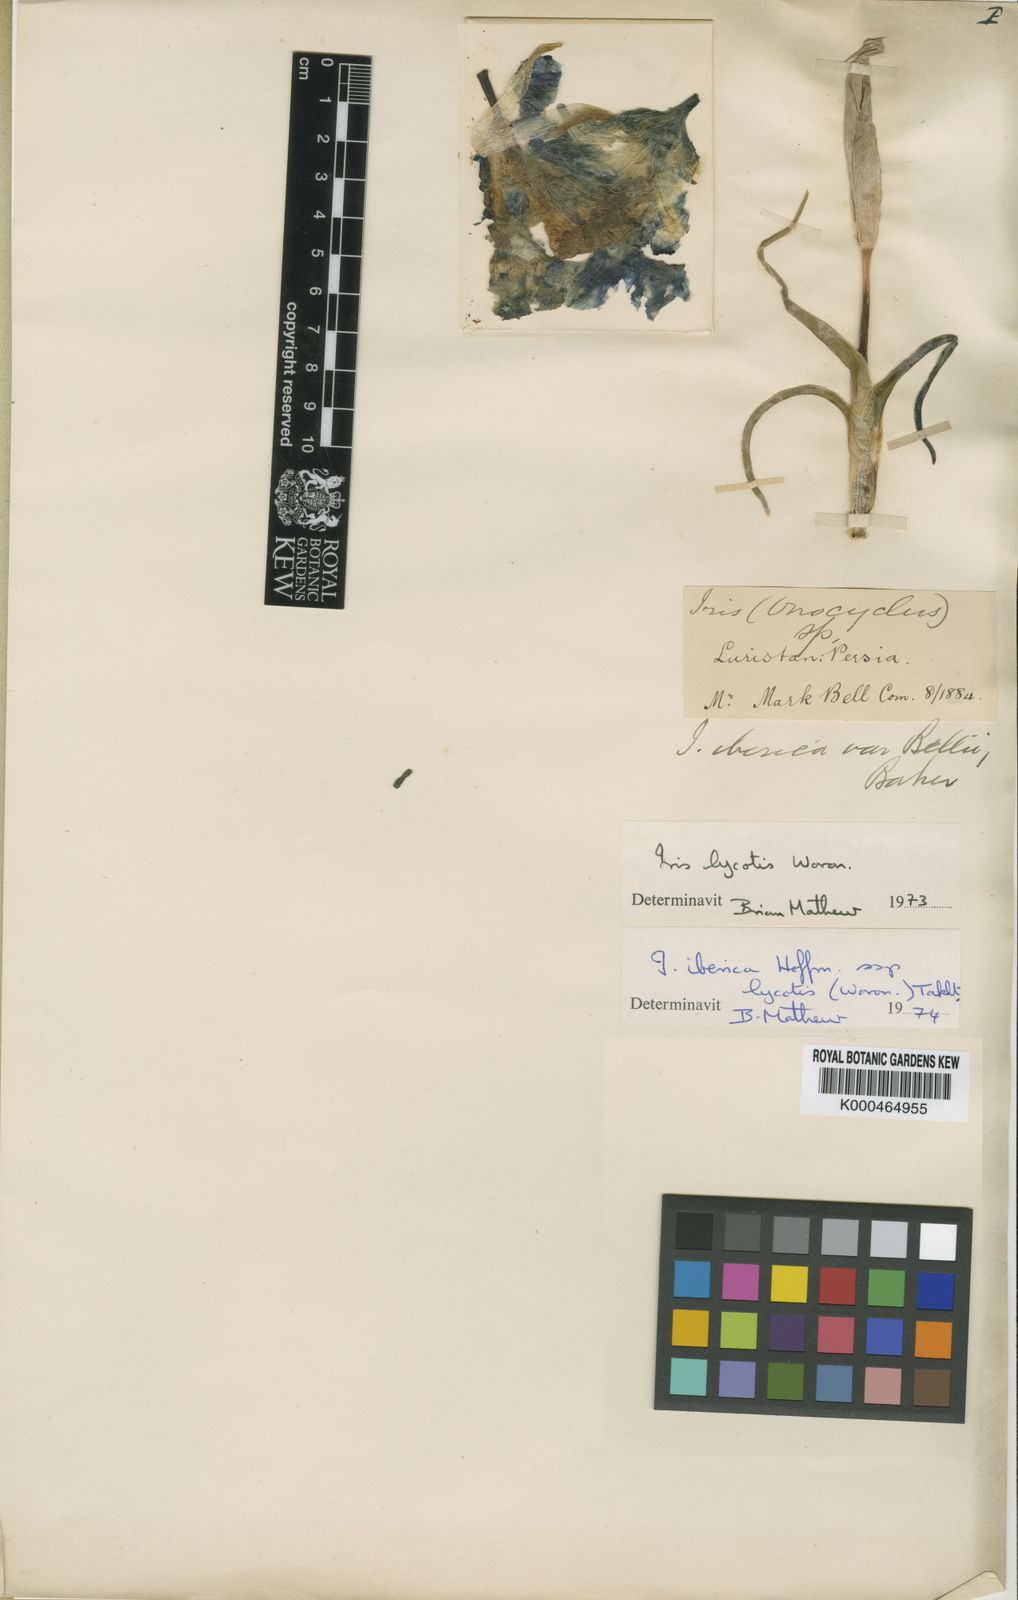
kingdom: Plantae
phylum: Tracheophyta
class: Liliopsida
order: Asparagales
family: Iridaceae
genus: Iris
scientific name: Iris lycotis
